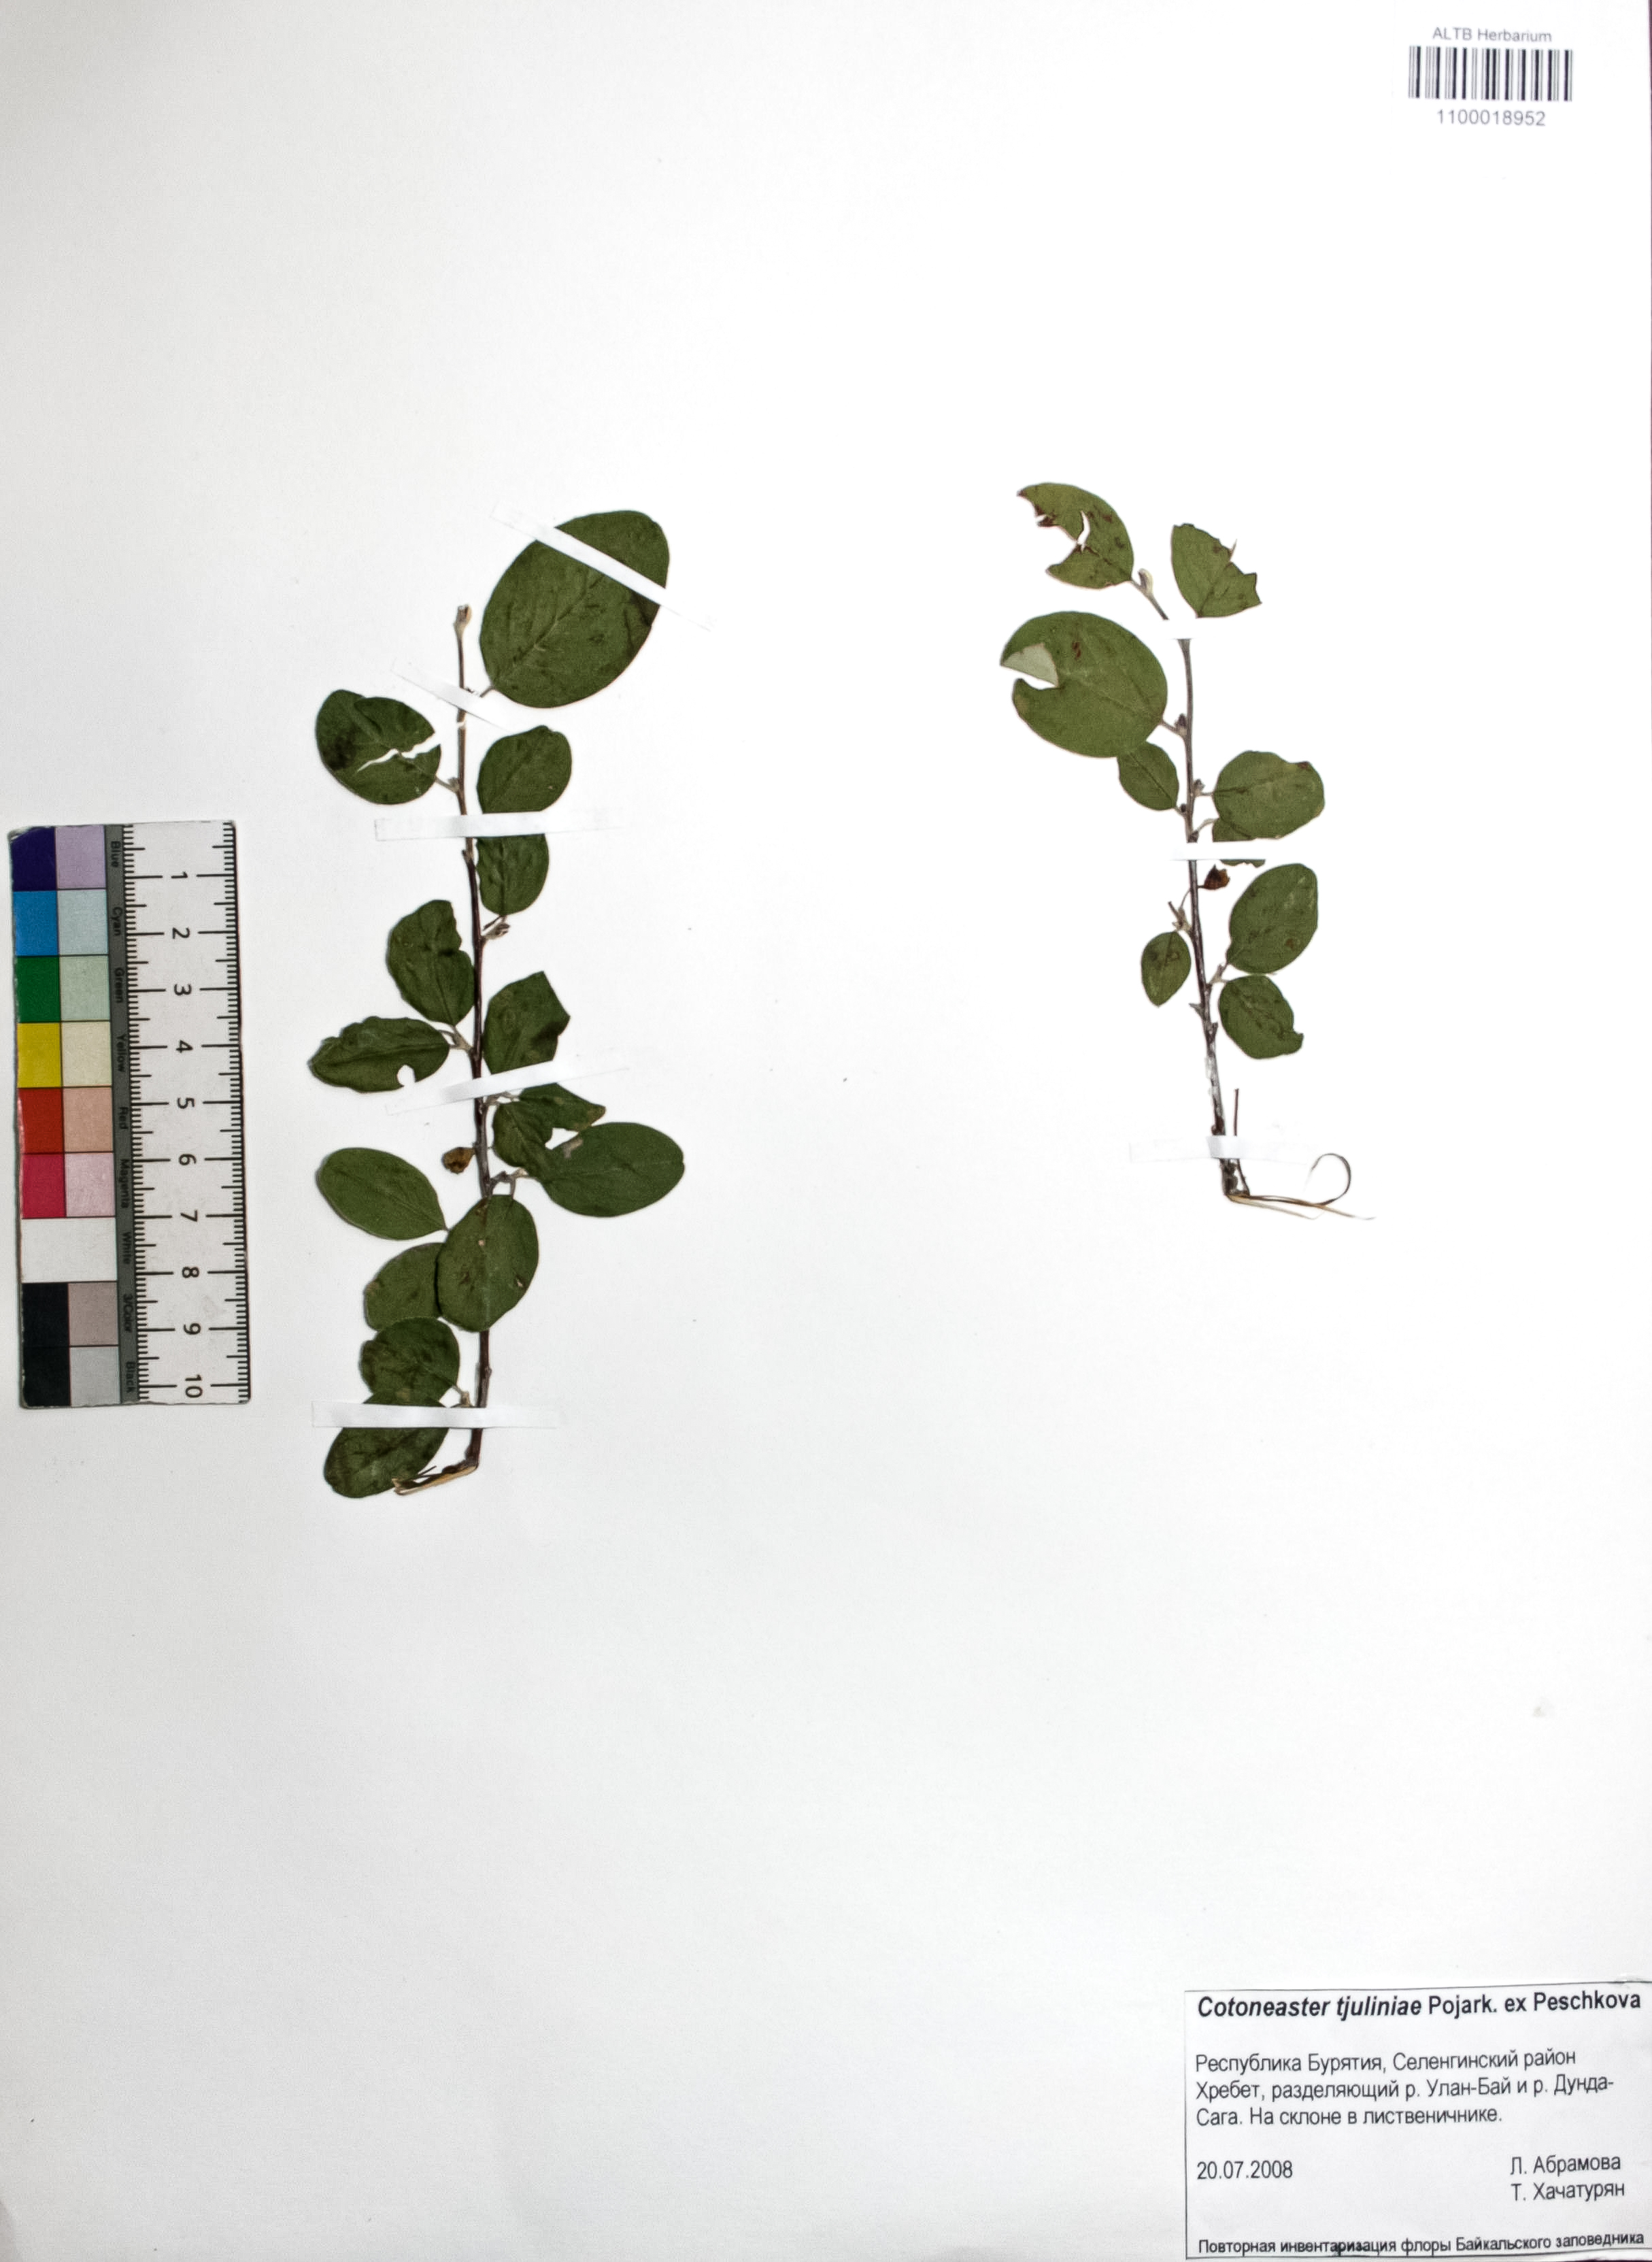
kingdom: Plantae
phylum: Tracheophyta
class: Magnoliopsida
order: Rosales
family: Rosaceae
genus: Cotoneaster
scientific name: Cotoneaster tjuliniae
